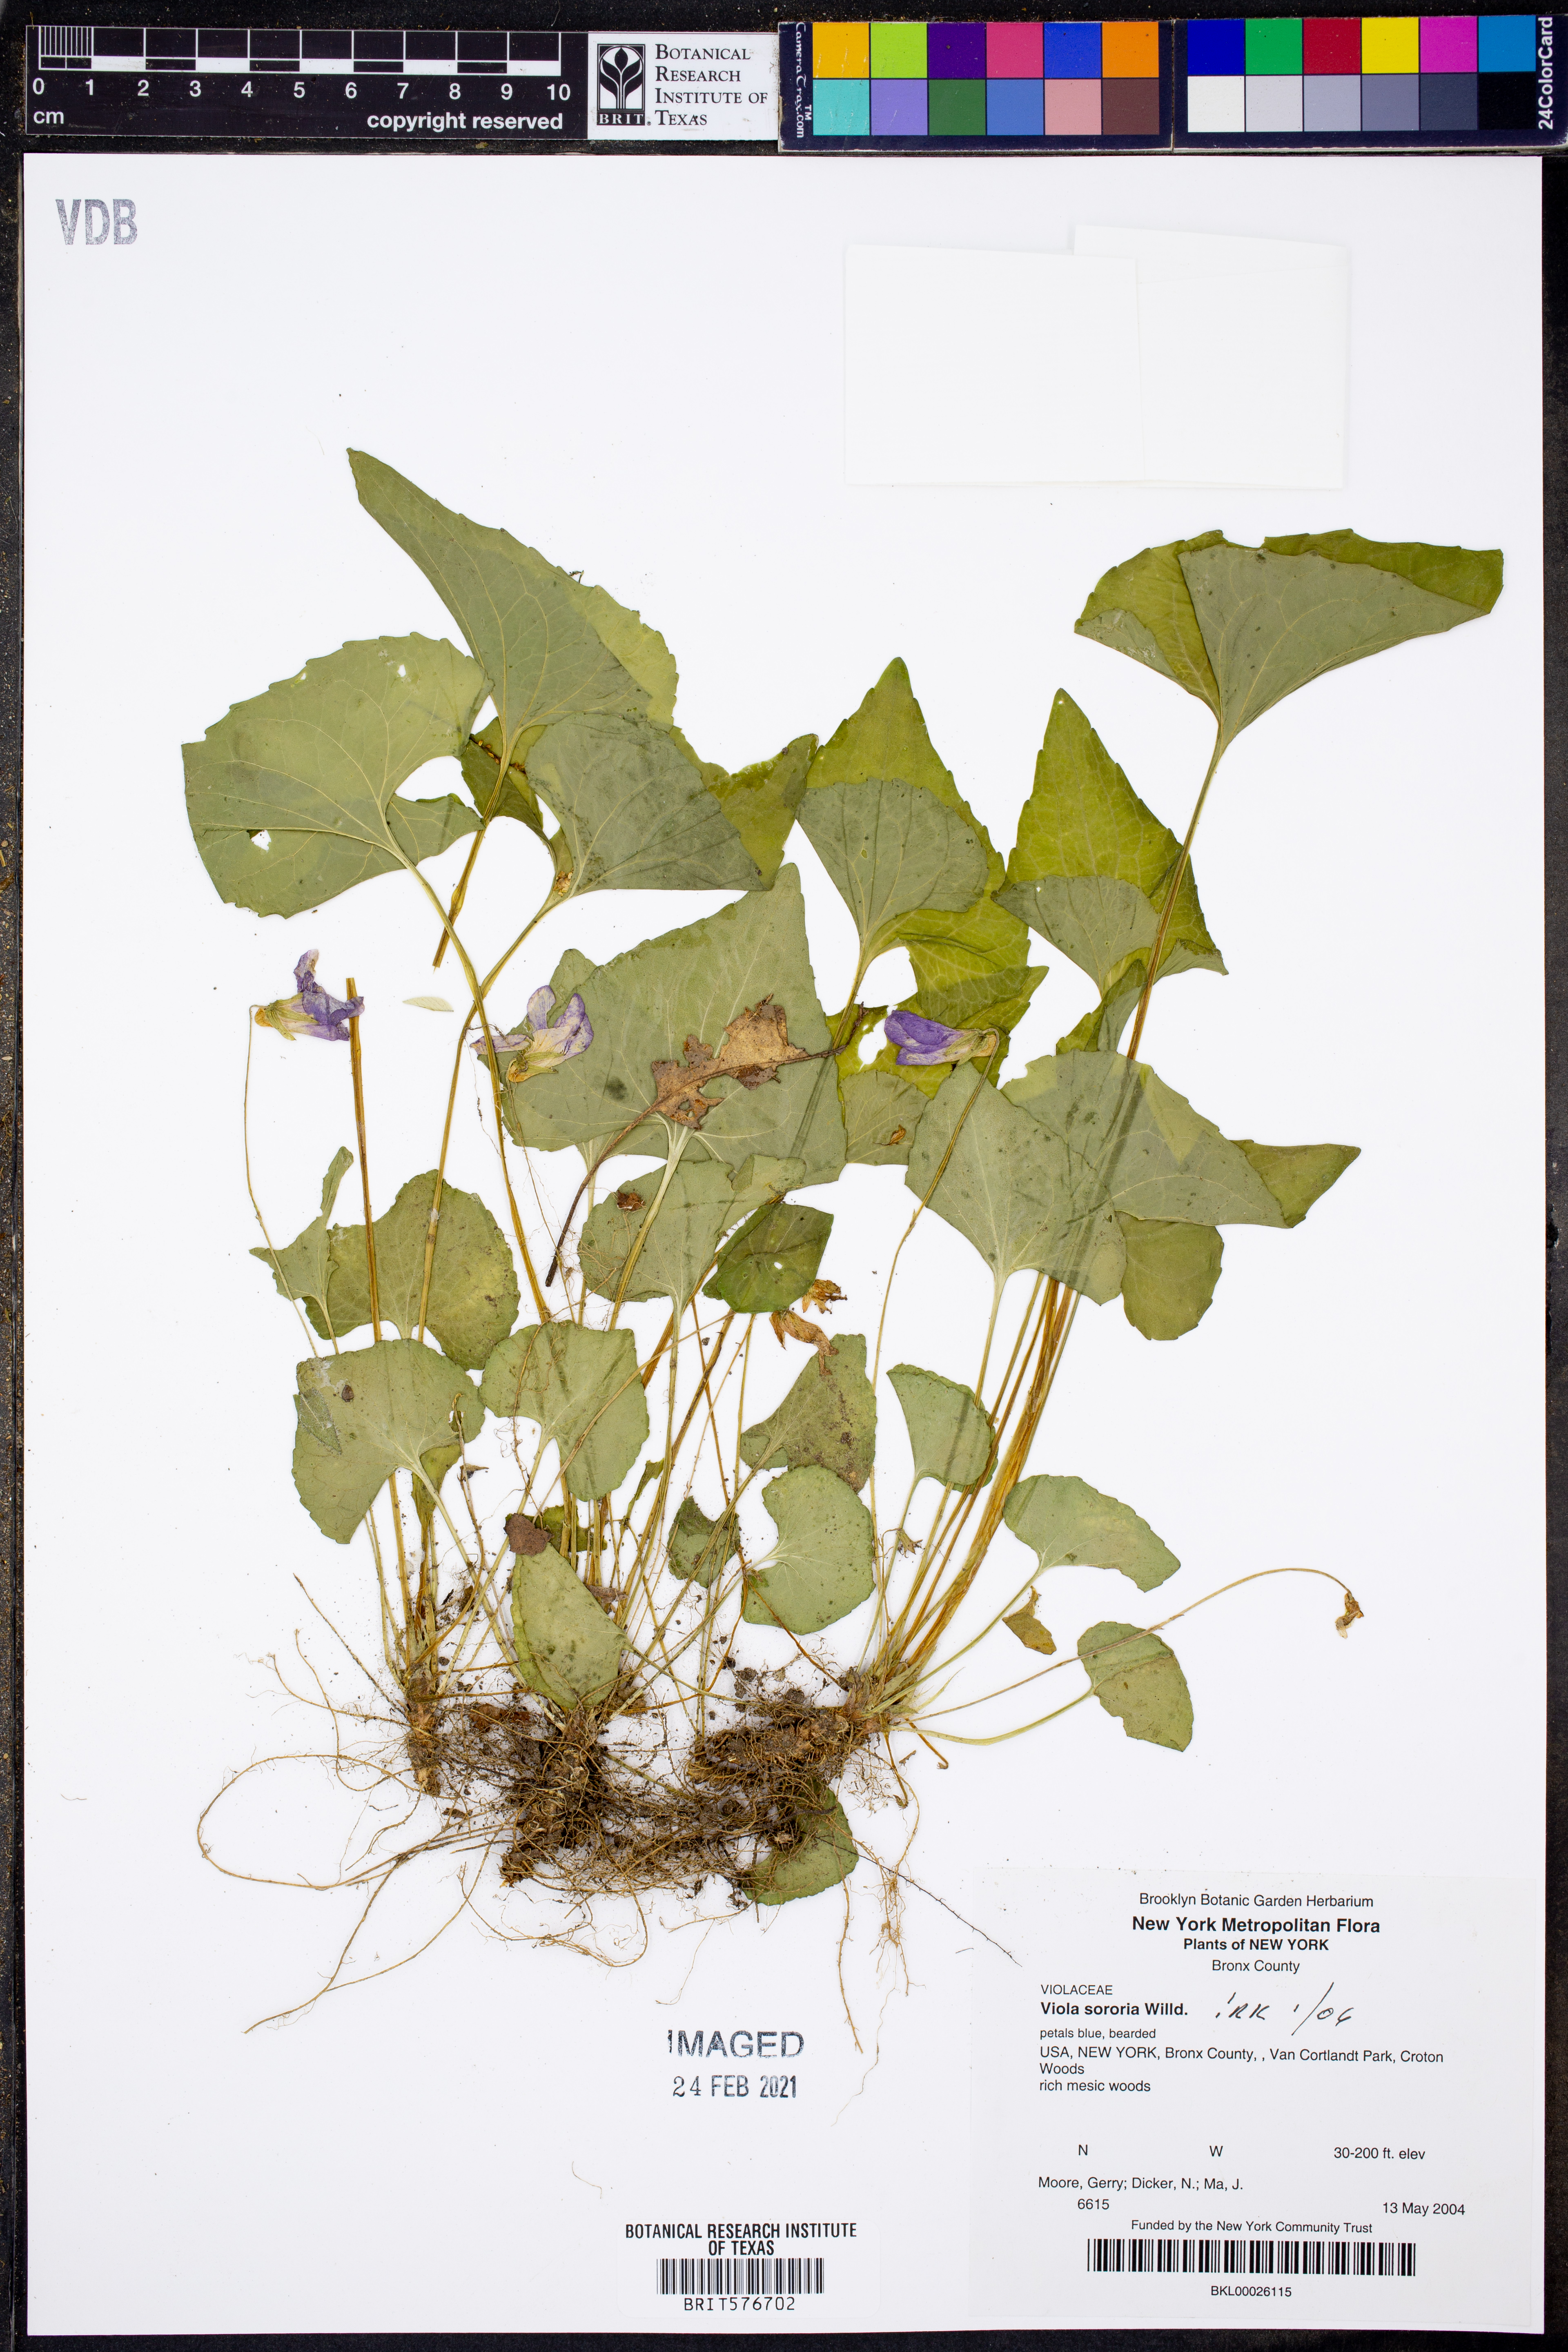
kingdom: Plantae
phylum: Tracheophyta
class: Magnoliopsida
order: Malpighiales
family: Violaceae
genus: Viola
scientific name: Viola sororia
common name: Dooryard violet
